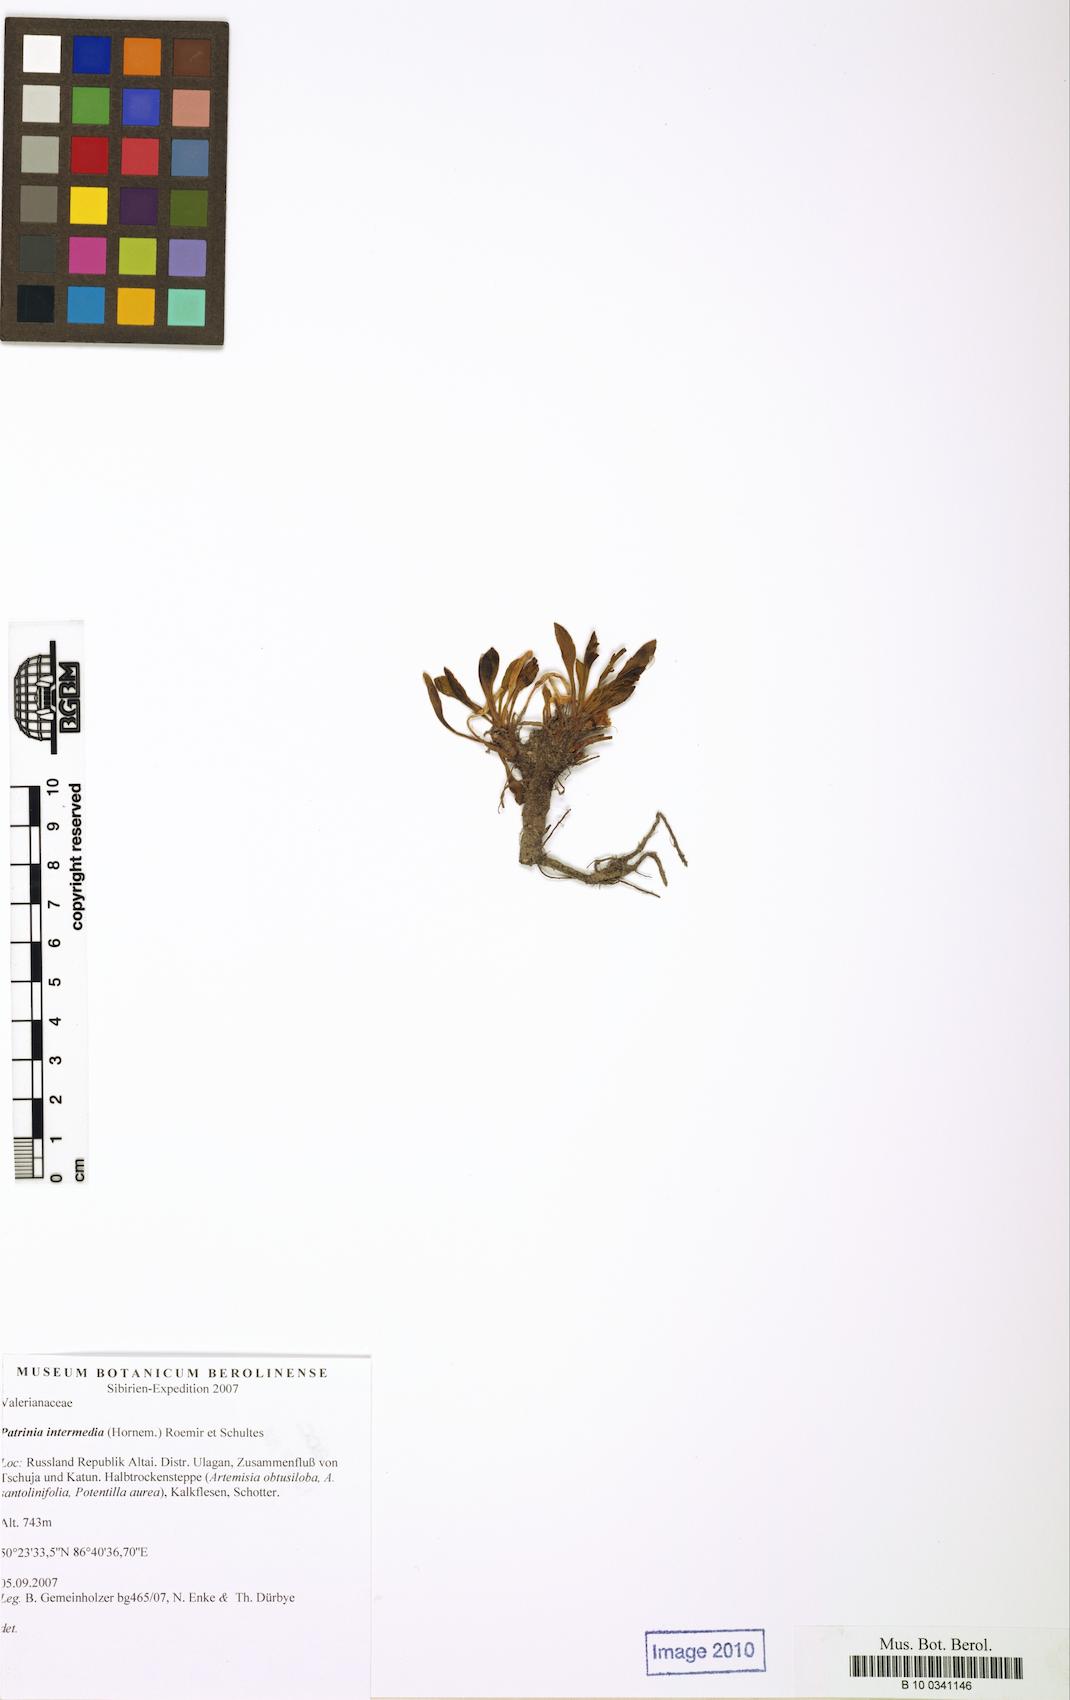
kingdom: Plantae
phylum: Tracheophyta
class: Magnoliopsida
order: Dipsacales
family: Caprifoliaceae
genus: Patrinia
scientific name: Patrinia intermedia
